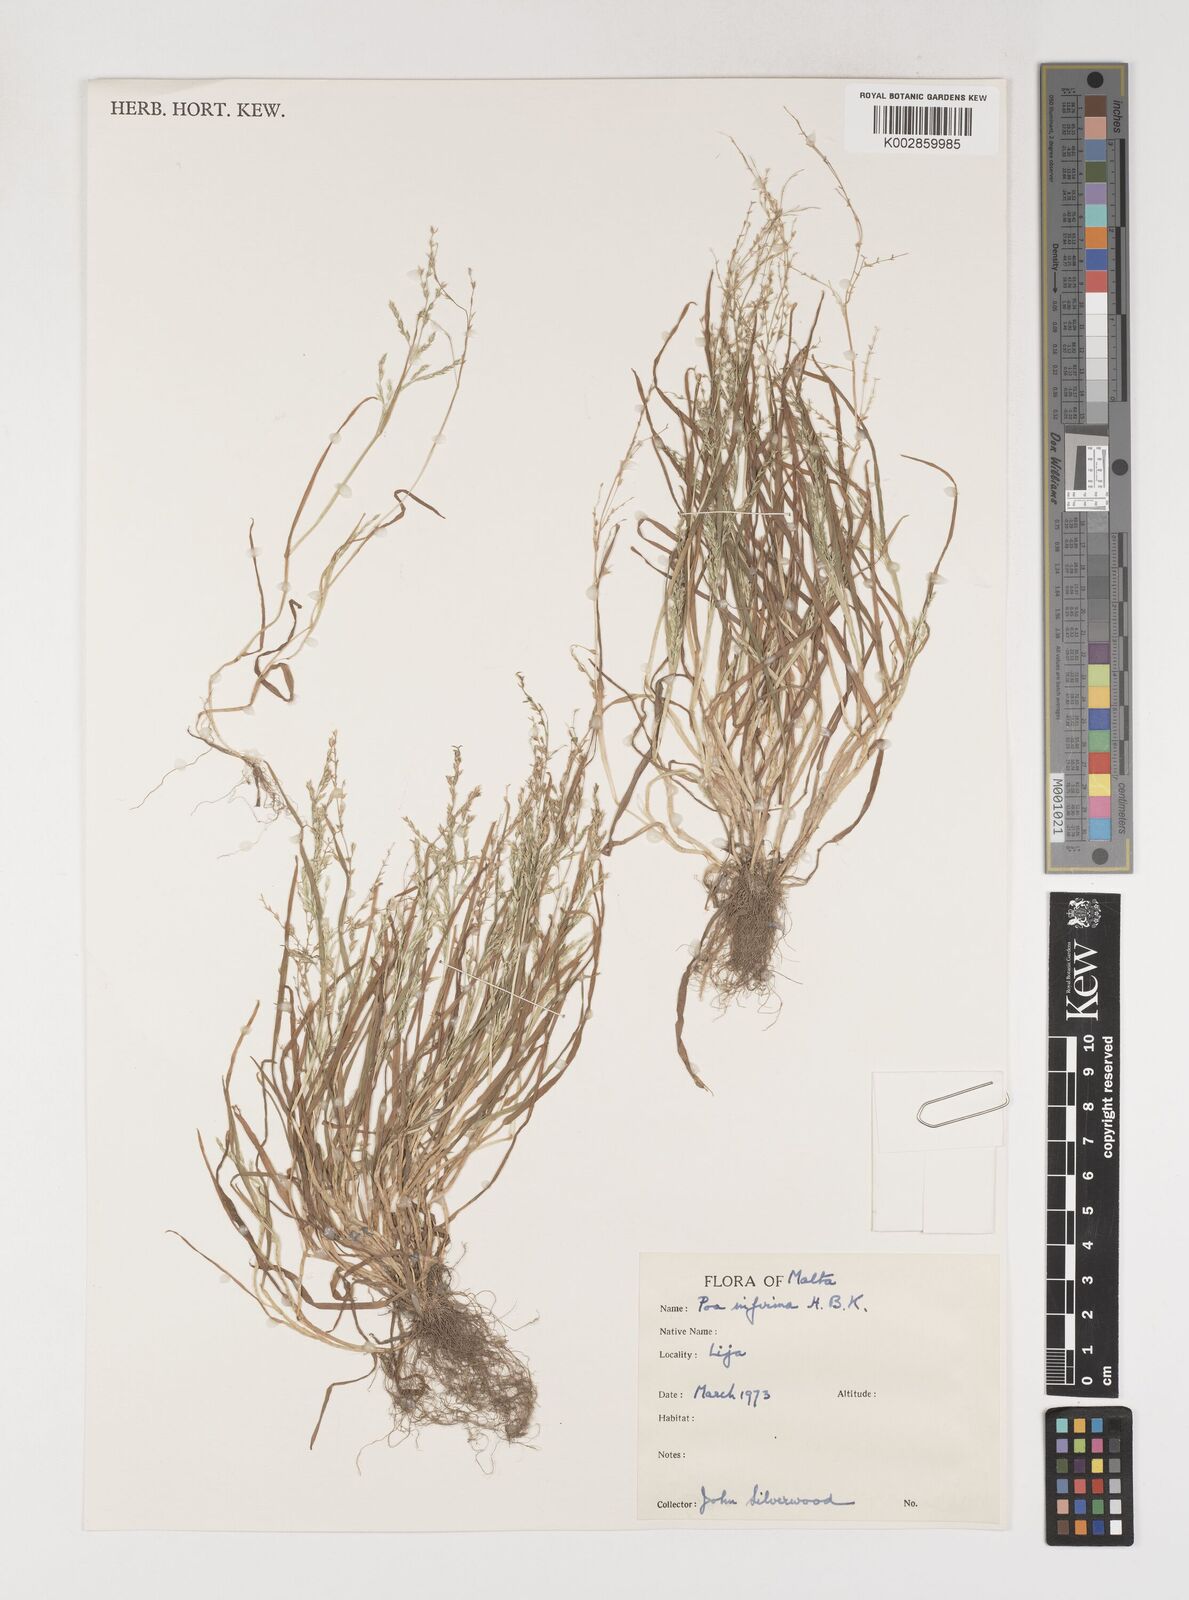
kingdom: Plantae
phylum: Tracheophyta
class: Liliopsida
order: Poales
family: Poaceae
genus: Poa
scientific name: Poa infirma
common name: Weak bluegrass
